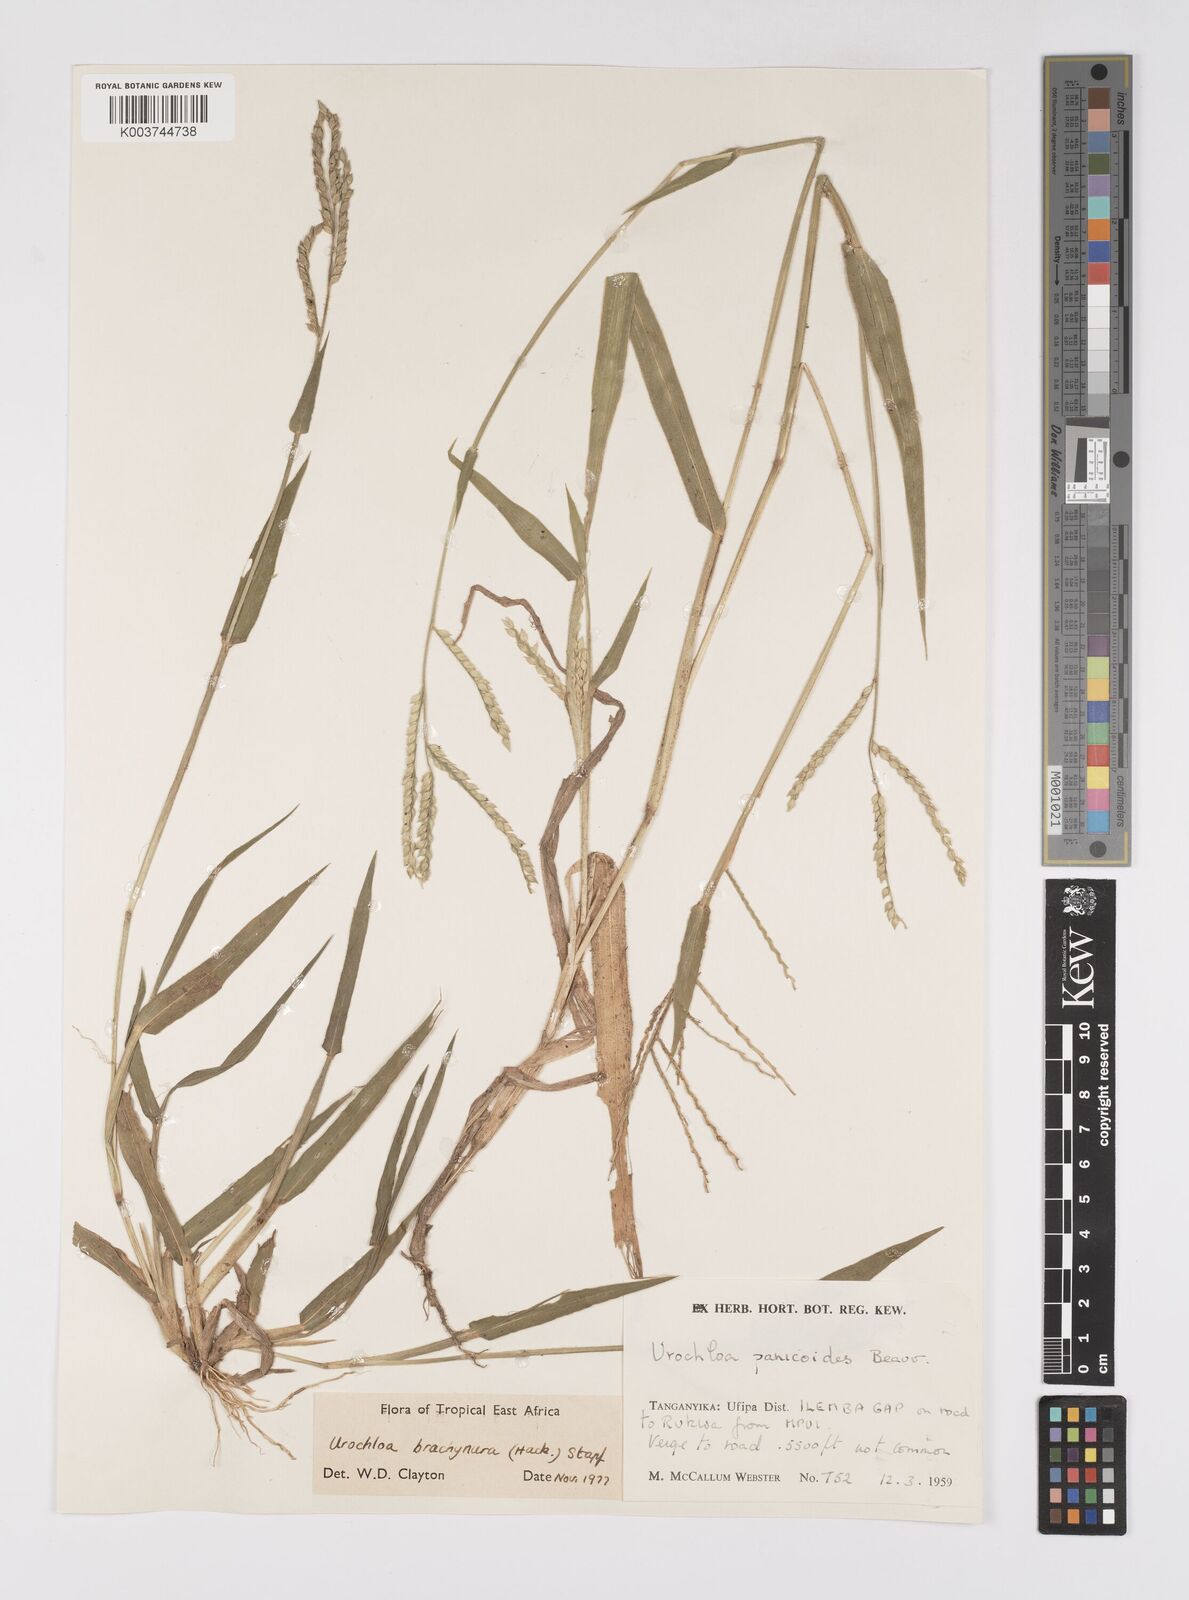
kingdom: Plantae
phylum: Tracheophyta
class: Liliopsida
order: Poales
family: Poaceae
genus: Urochloa
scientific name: Urochloa brachyura
